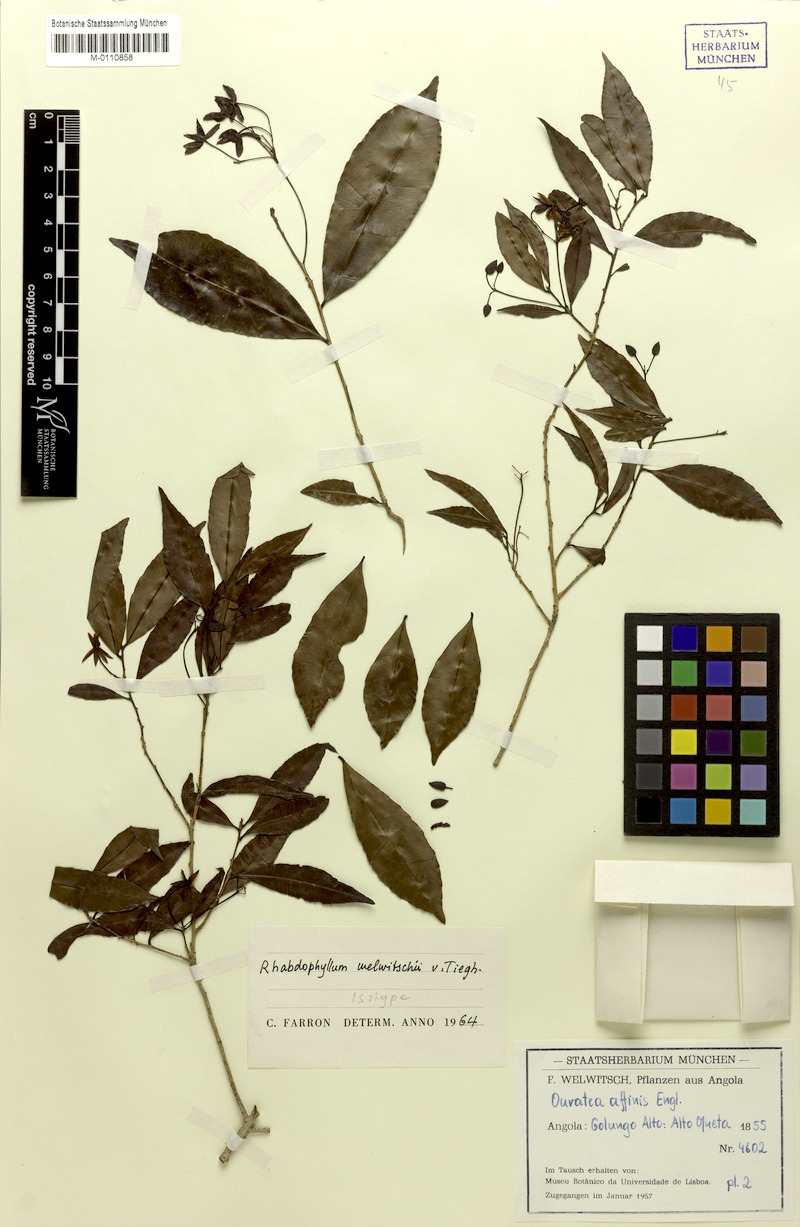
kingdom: Plantae
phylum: Tracheophyta
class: Magnoliopsida
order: Malpighiales
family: Ochnaceae
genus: Rhabdophyllum
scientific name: Rhabdophyllum welwitschii
